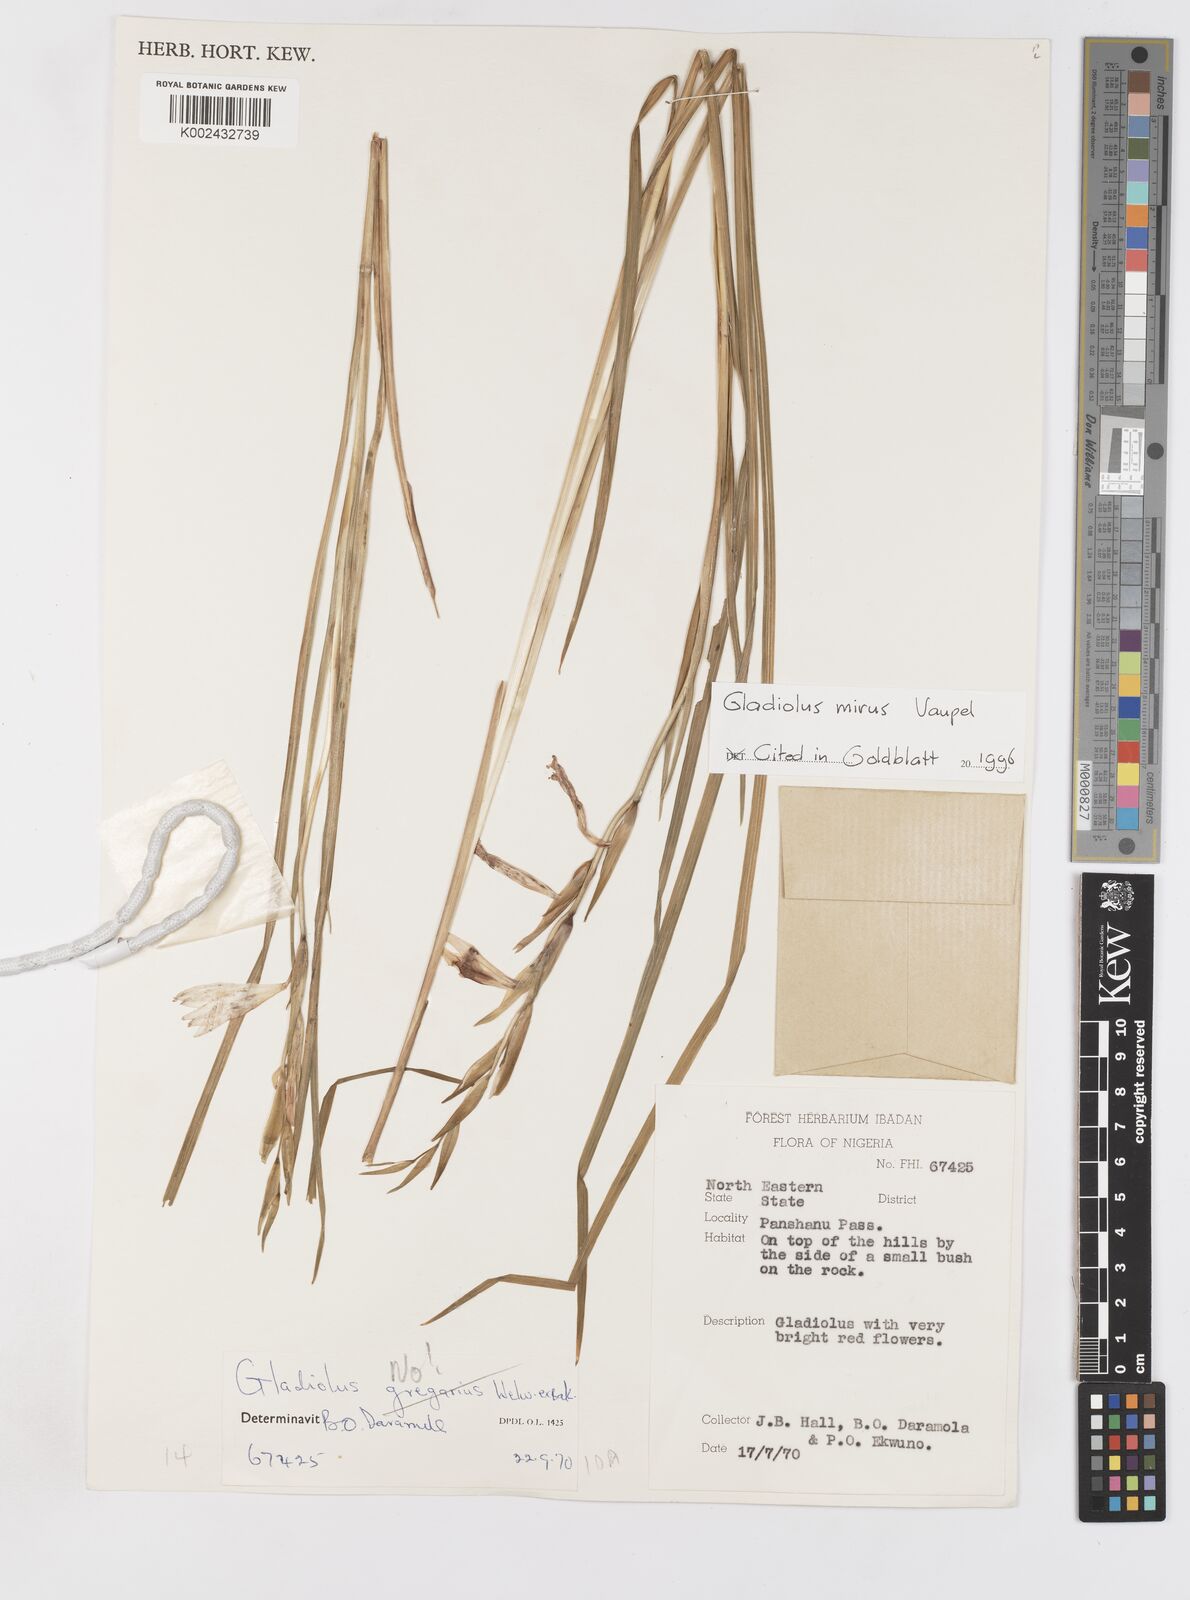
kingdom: Plantae
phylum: Tracheophyta
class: Liliopsida
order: Asparagales
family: Iridaceae
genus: Gladiolus
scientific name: Gladiolus mirus
